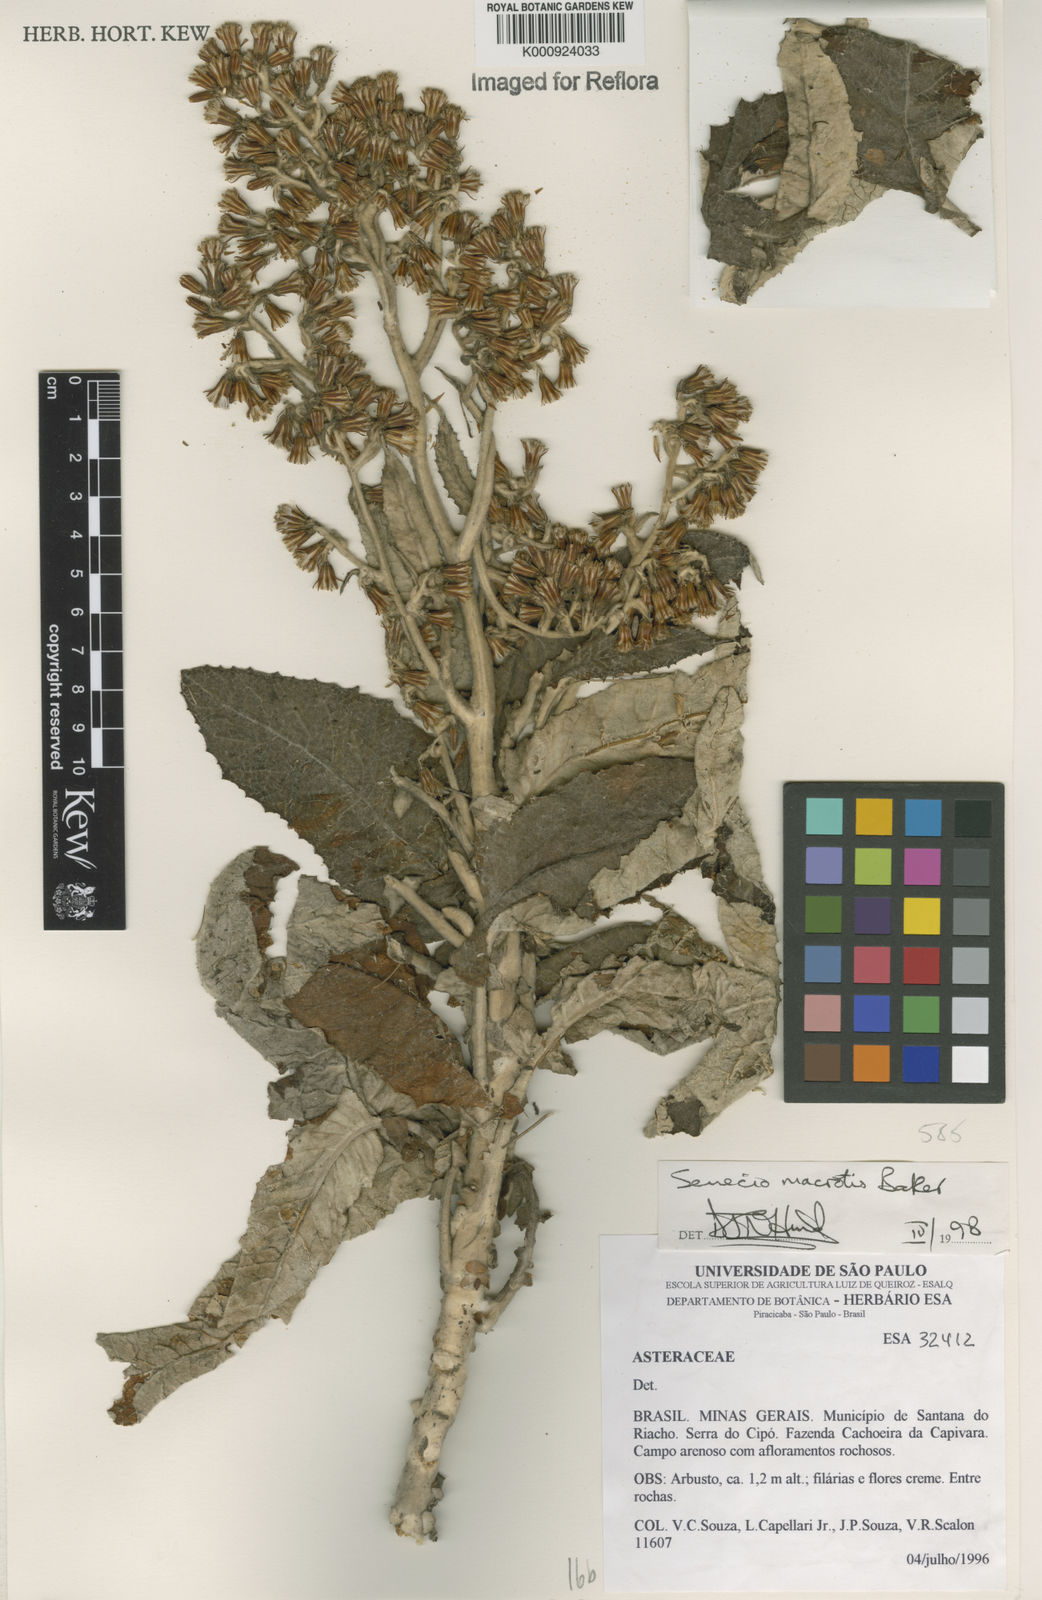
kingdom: Plantae
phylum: Tracheophyta
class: Magnoliopsida
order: Asterales
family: Asteraceae
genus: Senecio
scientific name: Senecio macrotis
